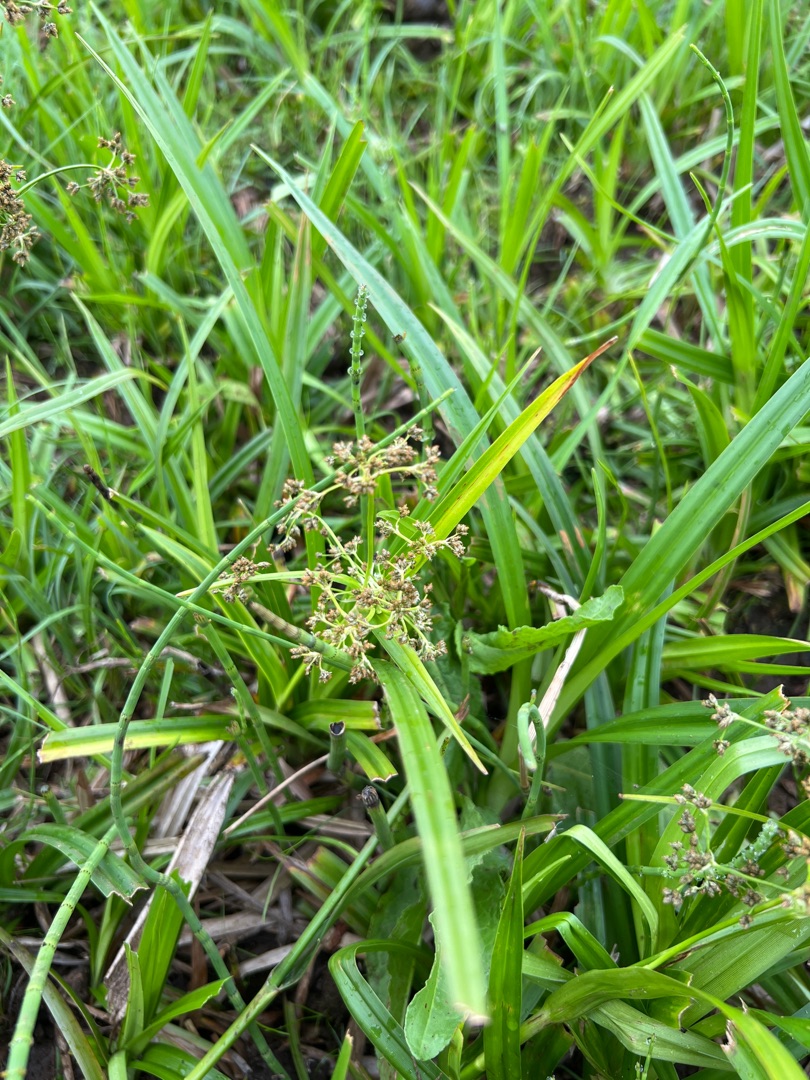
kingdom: Plantae
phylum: Tracheophyta
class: Liliopsida
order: Poales
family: Cyperaceae
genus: Scirpus
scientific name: Scirpus sylvaticus
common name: Skov-kogleaks
